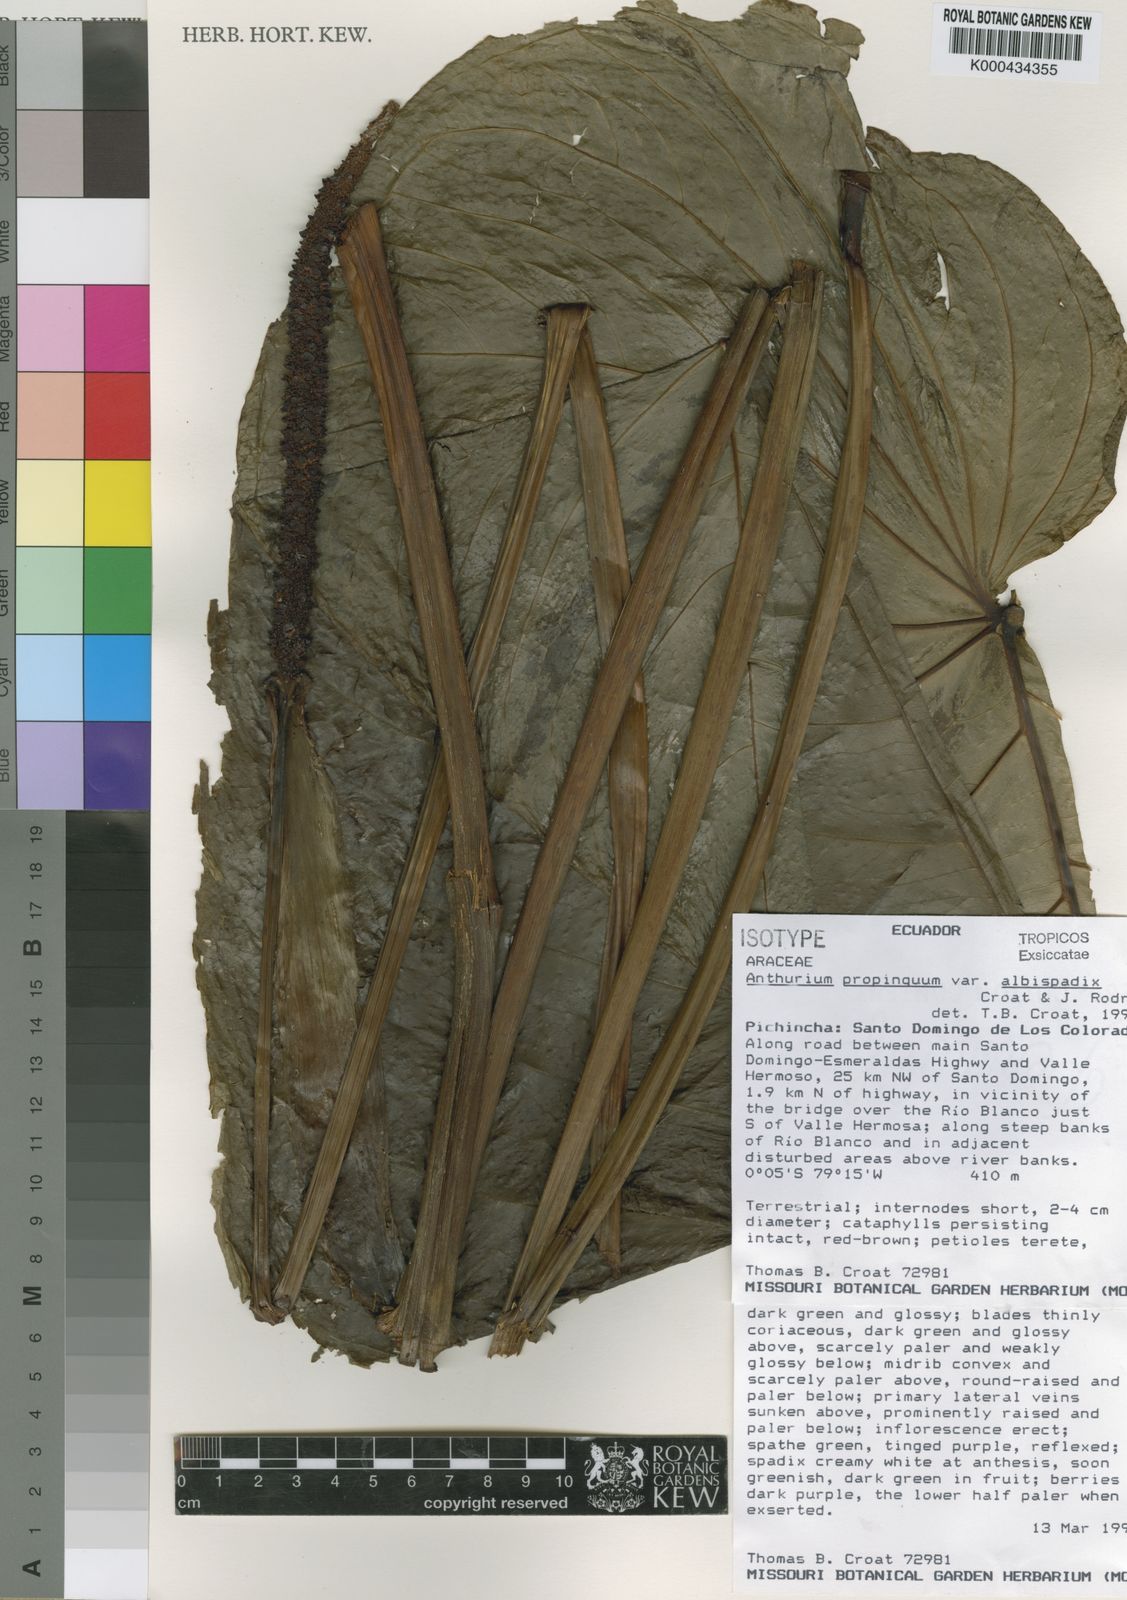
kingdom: Plantae
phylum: Tracheophyta
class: Liliopsida
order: Alismatales
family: Araceae
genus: Anthurium
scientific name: Anthurium albispadix
